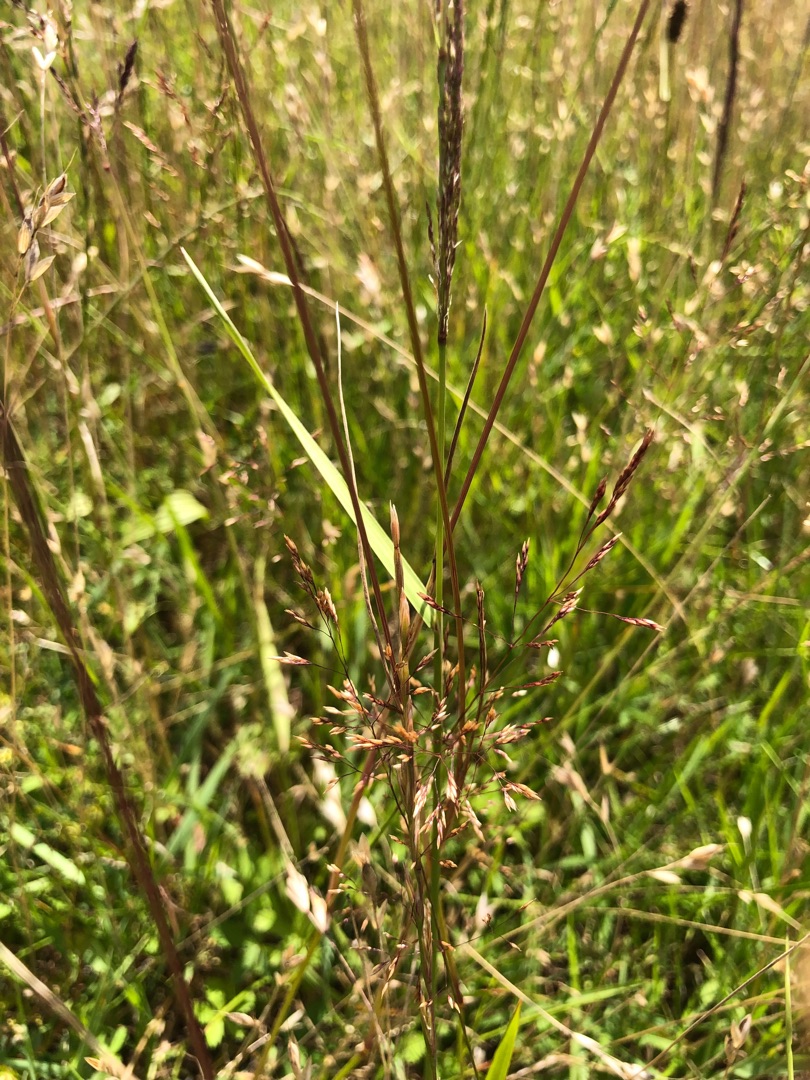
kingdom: Plantae
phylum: Tracheophyta
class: Liliopsida
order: Poales
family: Poaceae
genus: Agrostis
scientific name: Agrostis capillaris
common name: Almindelig hvene
